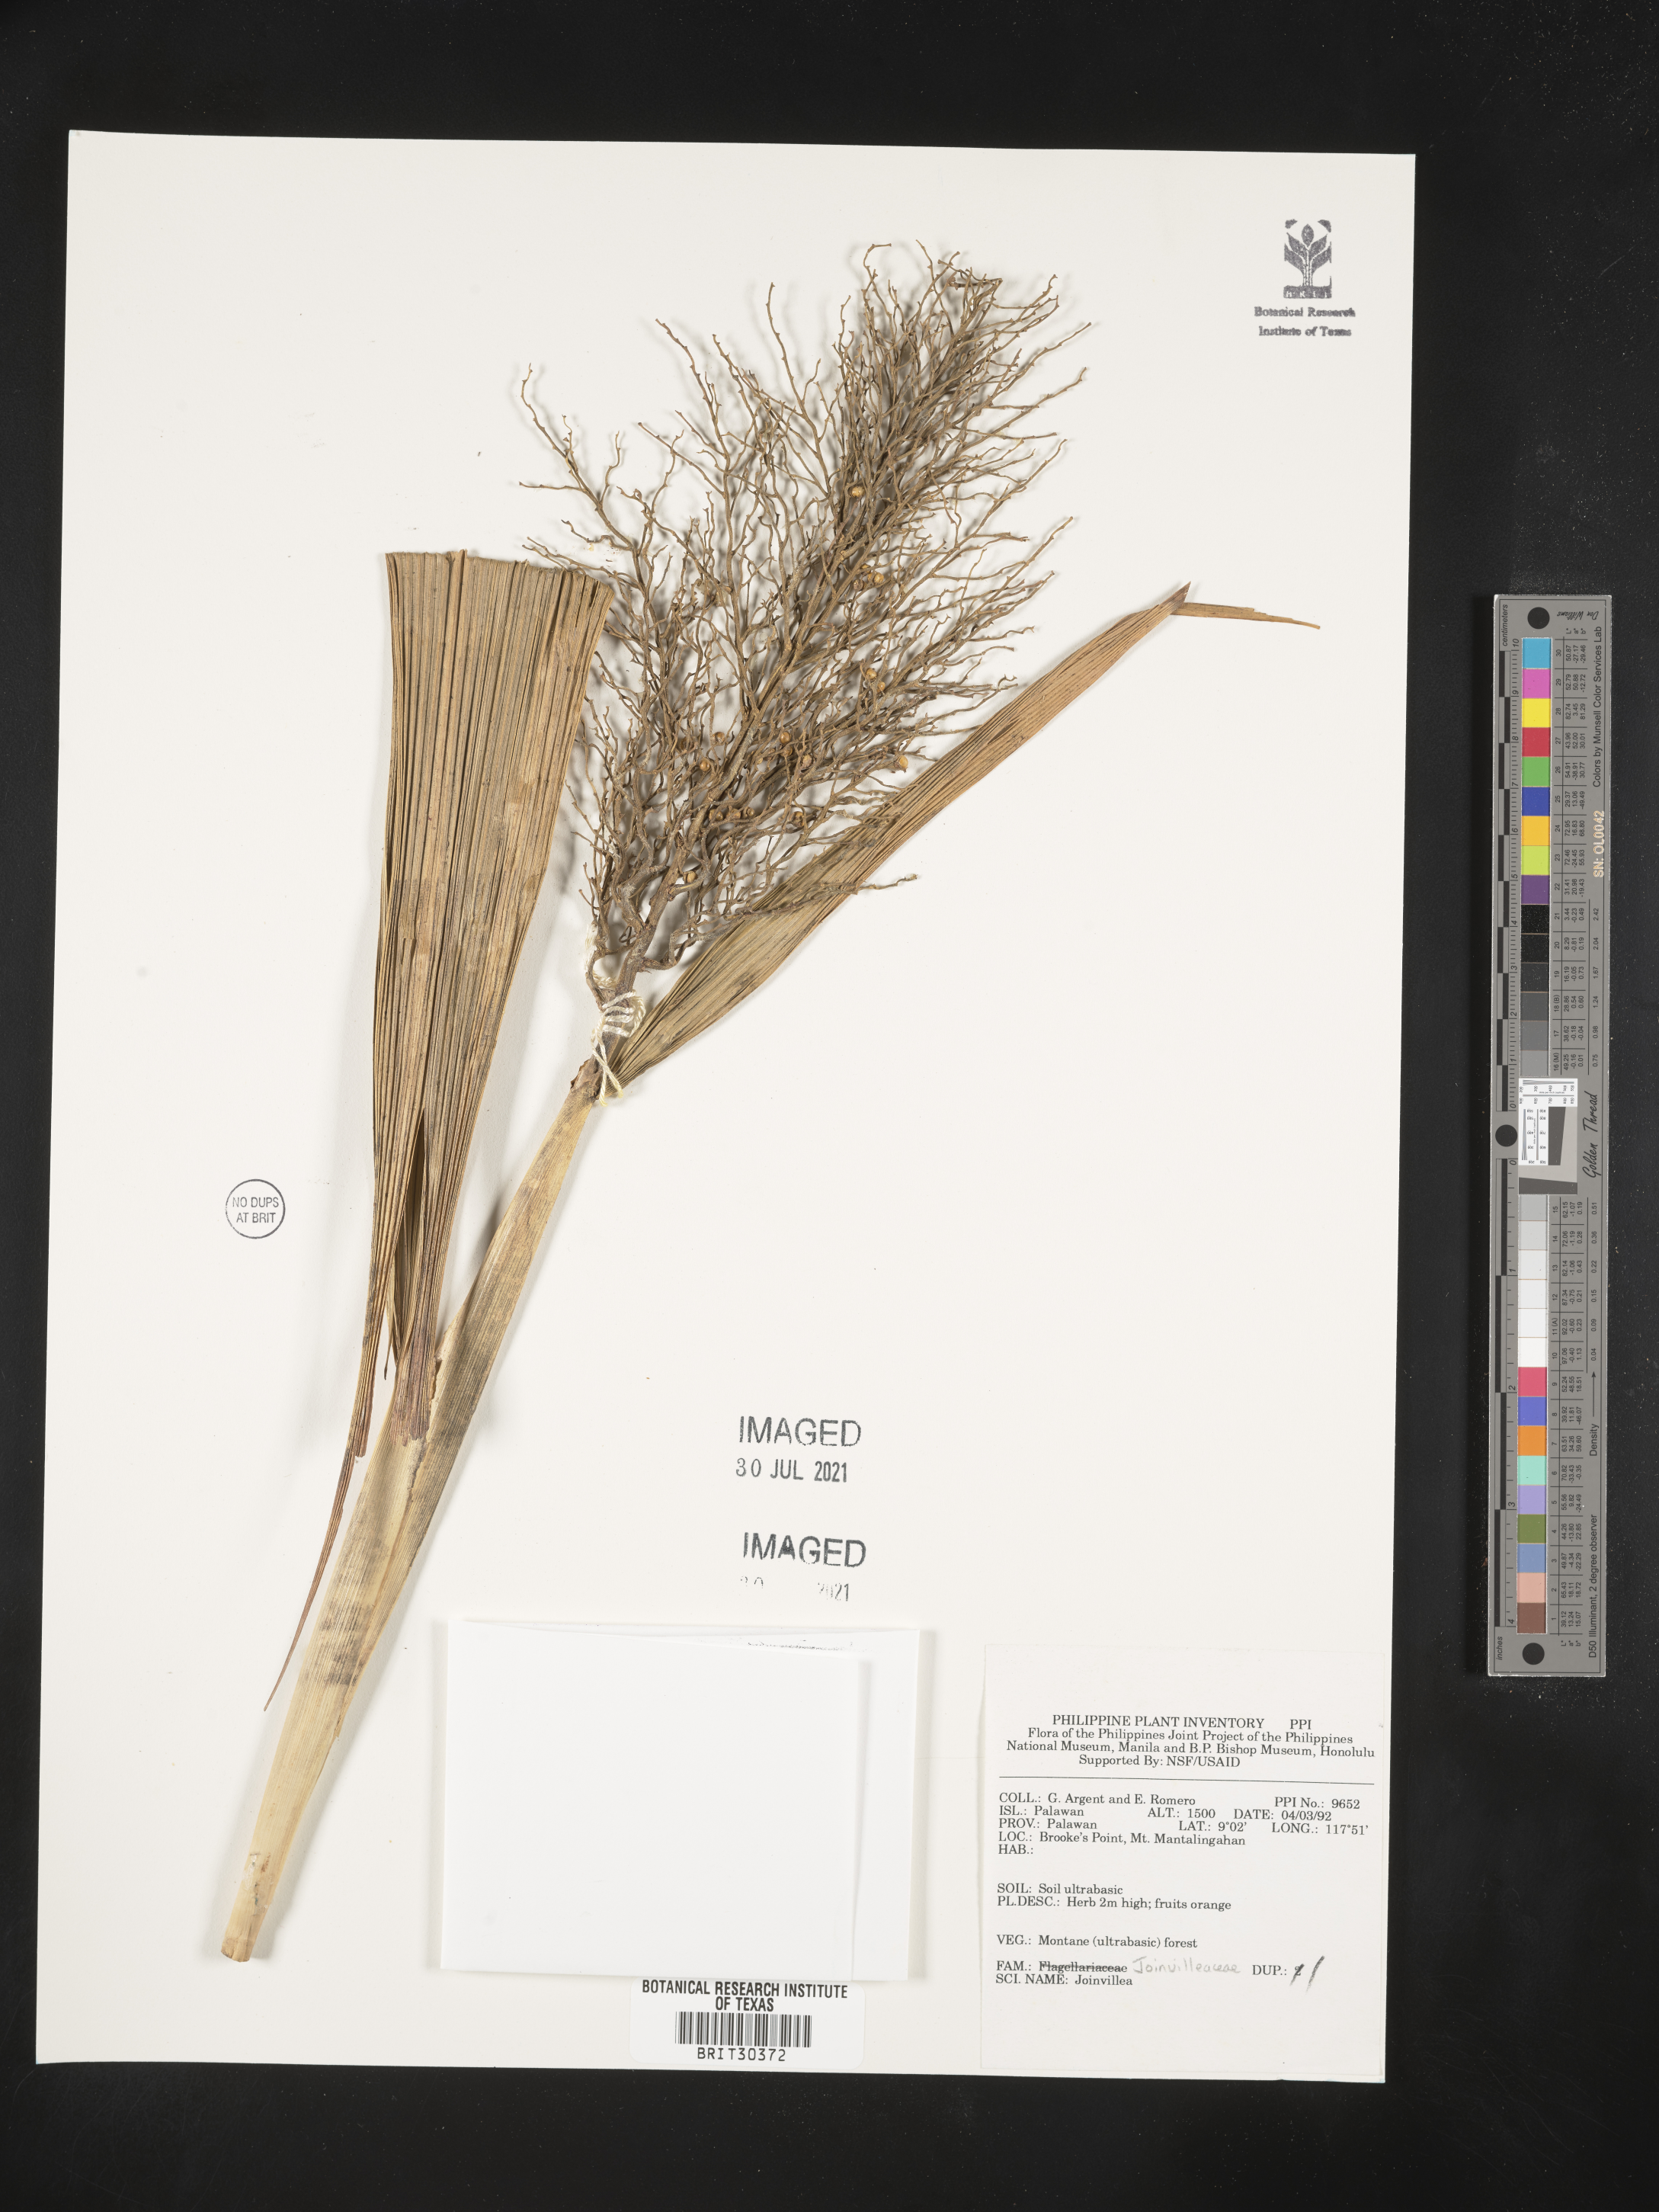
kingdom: Plantae
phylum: Tracheophyta
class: Liliopsida
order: Poales
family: Joinvilleaceae
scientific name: Joinvilleaceae
